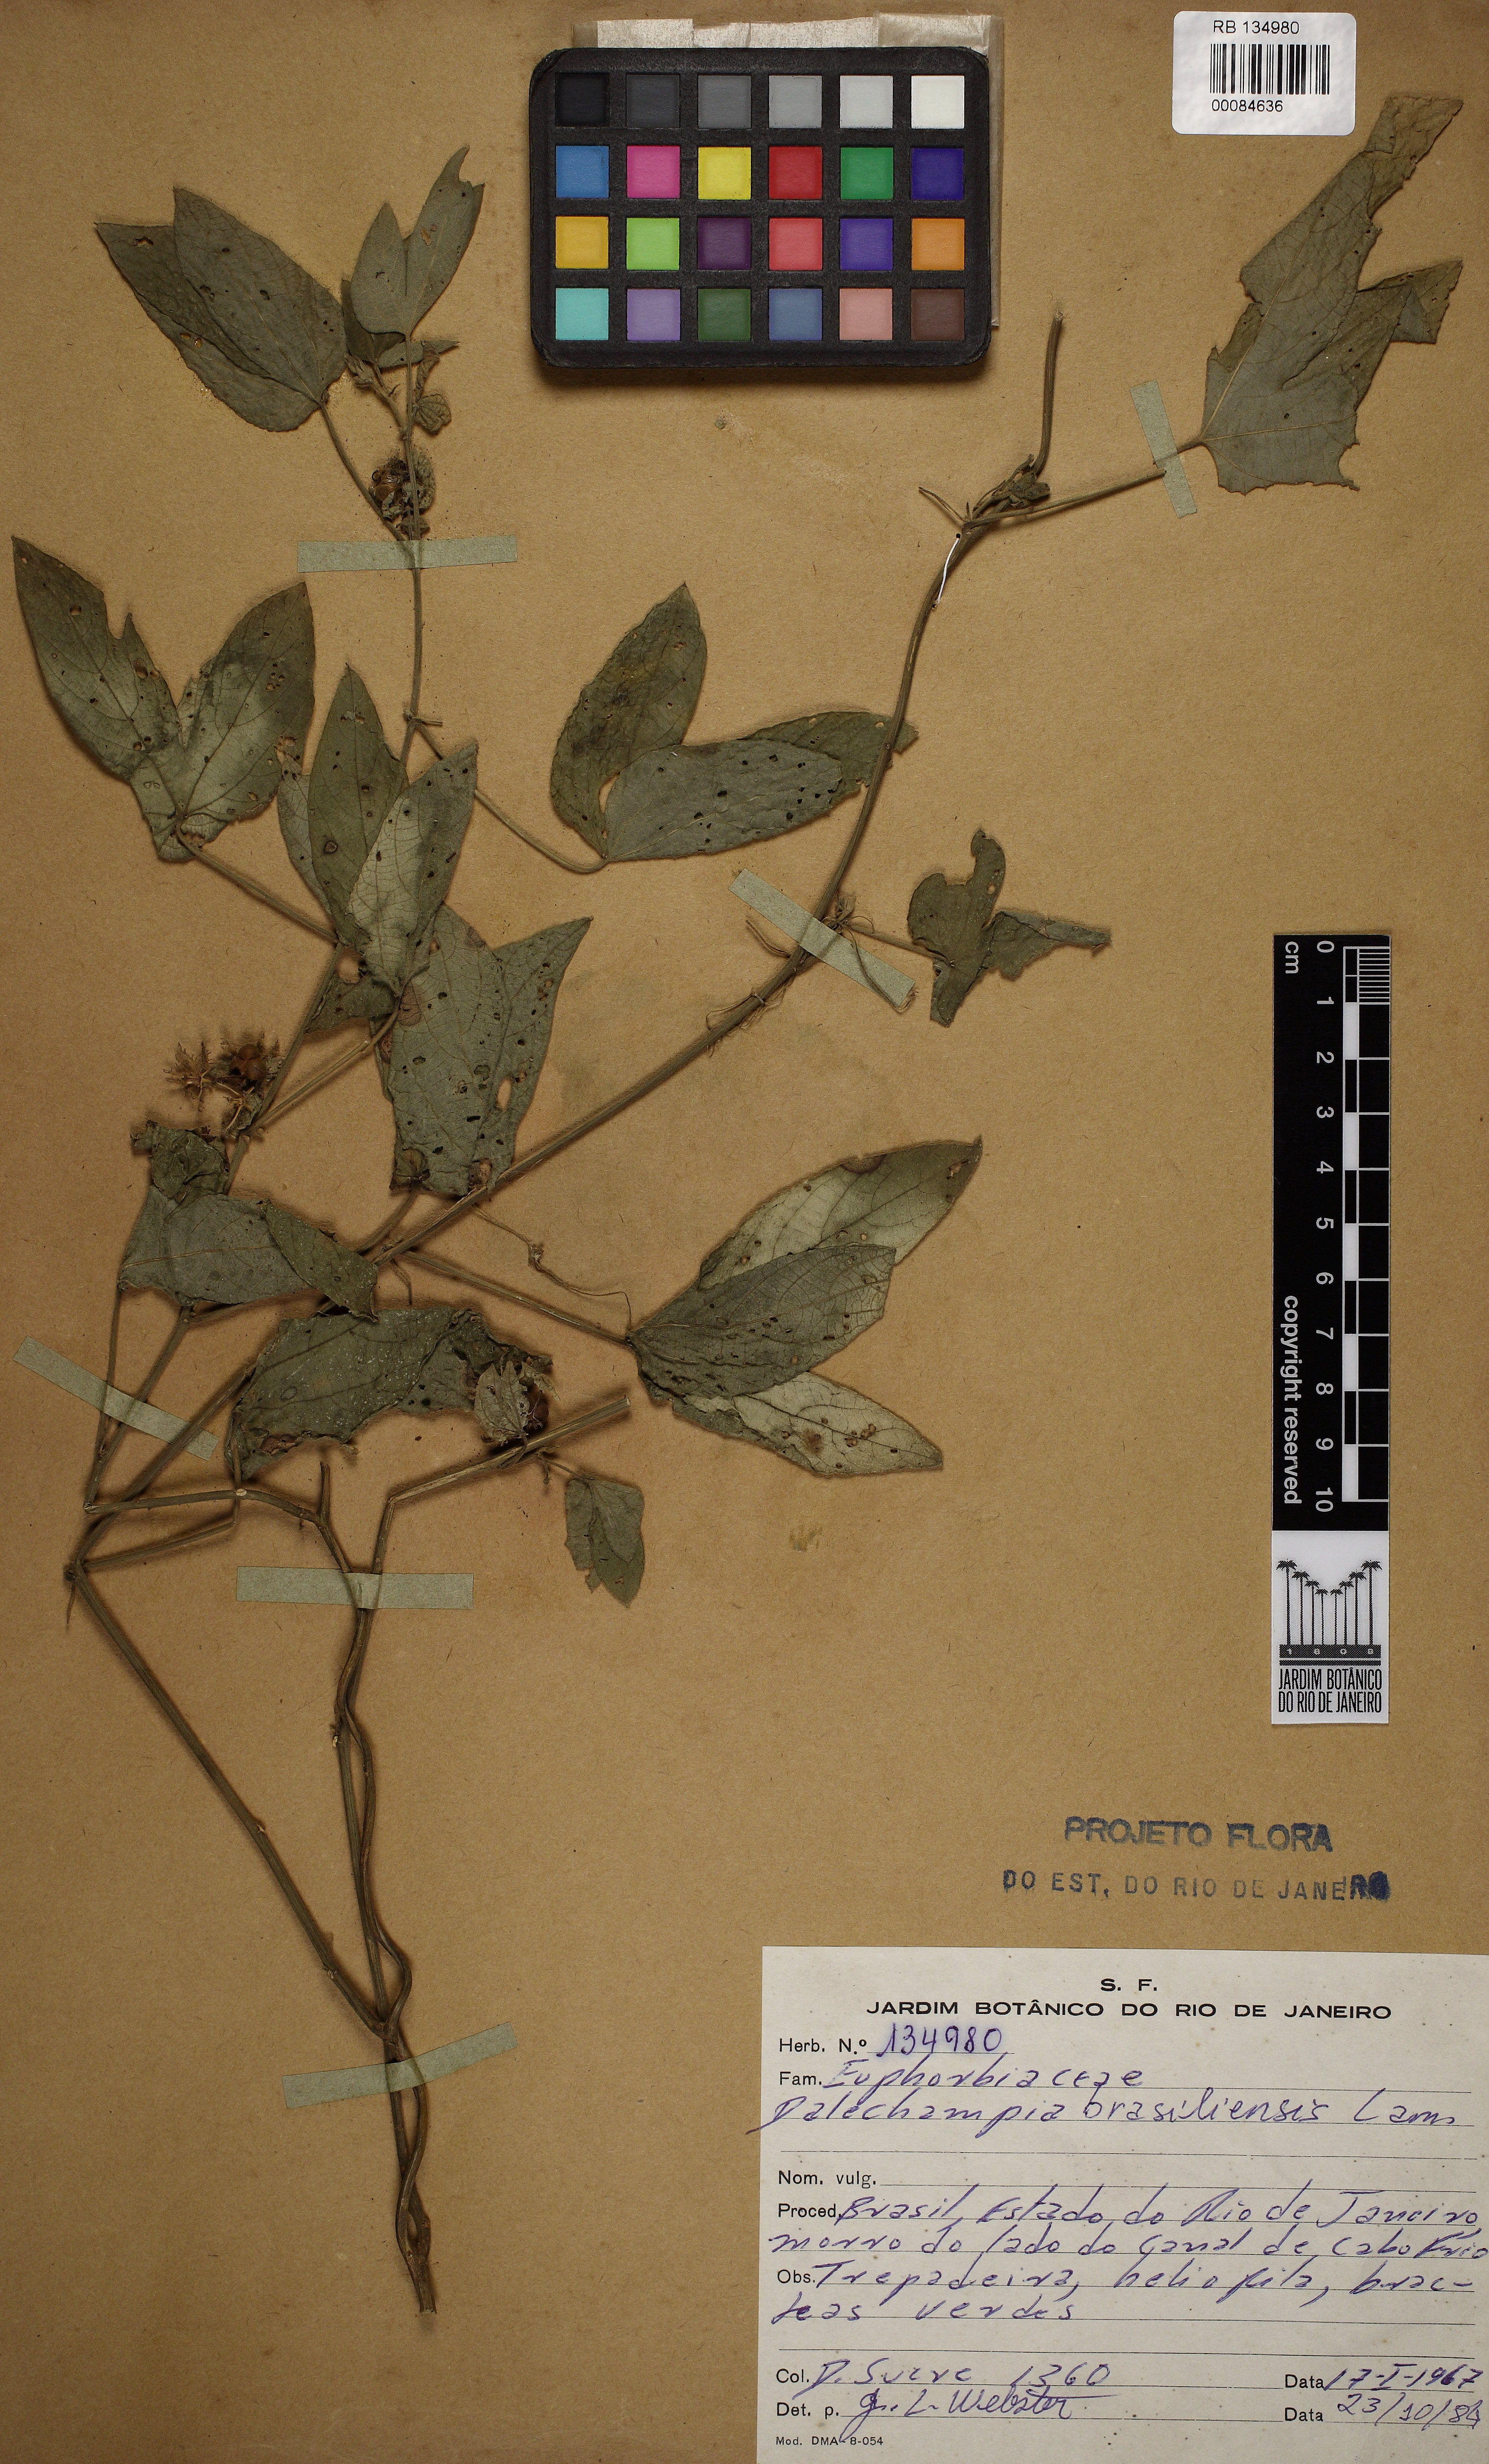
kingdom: Plantae
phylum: Tracheophyta
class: Magnoliopsida
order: Malpighiales
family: Euphorbiaceae
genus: Dalechampia
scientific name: Dalechampia brasiliensis
